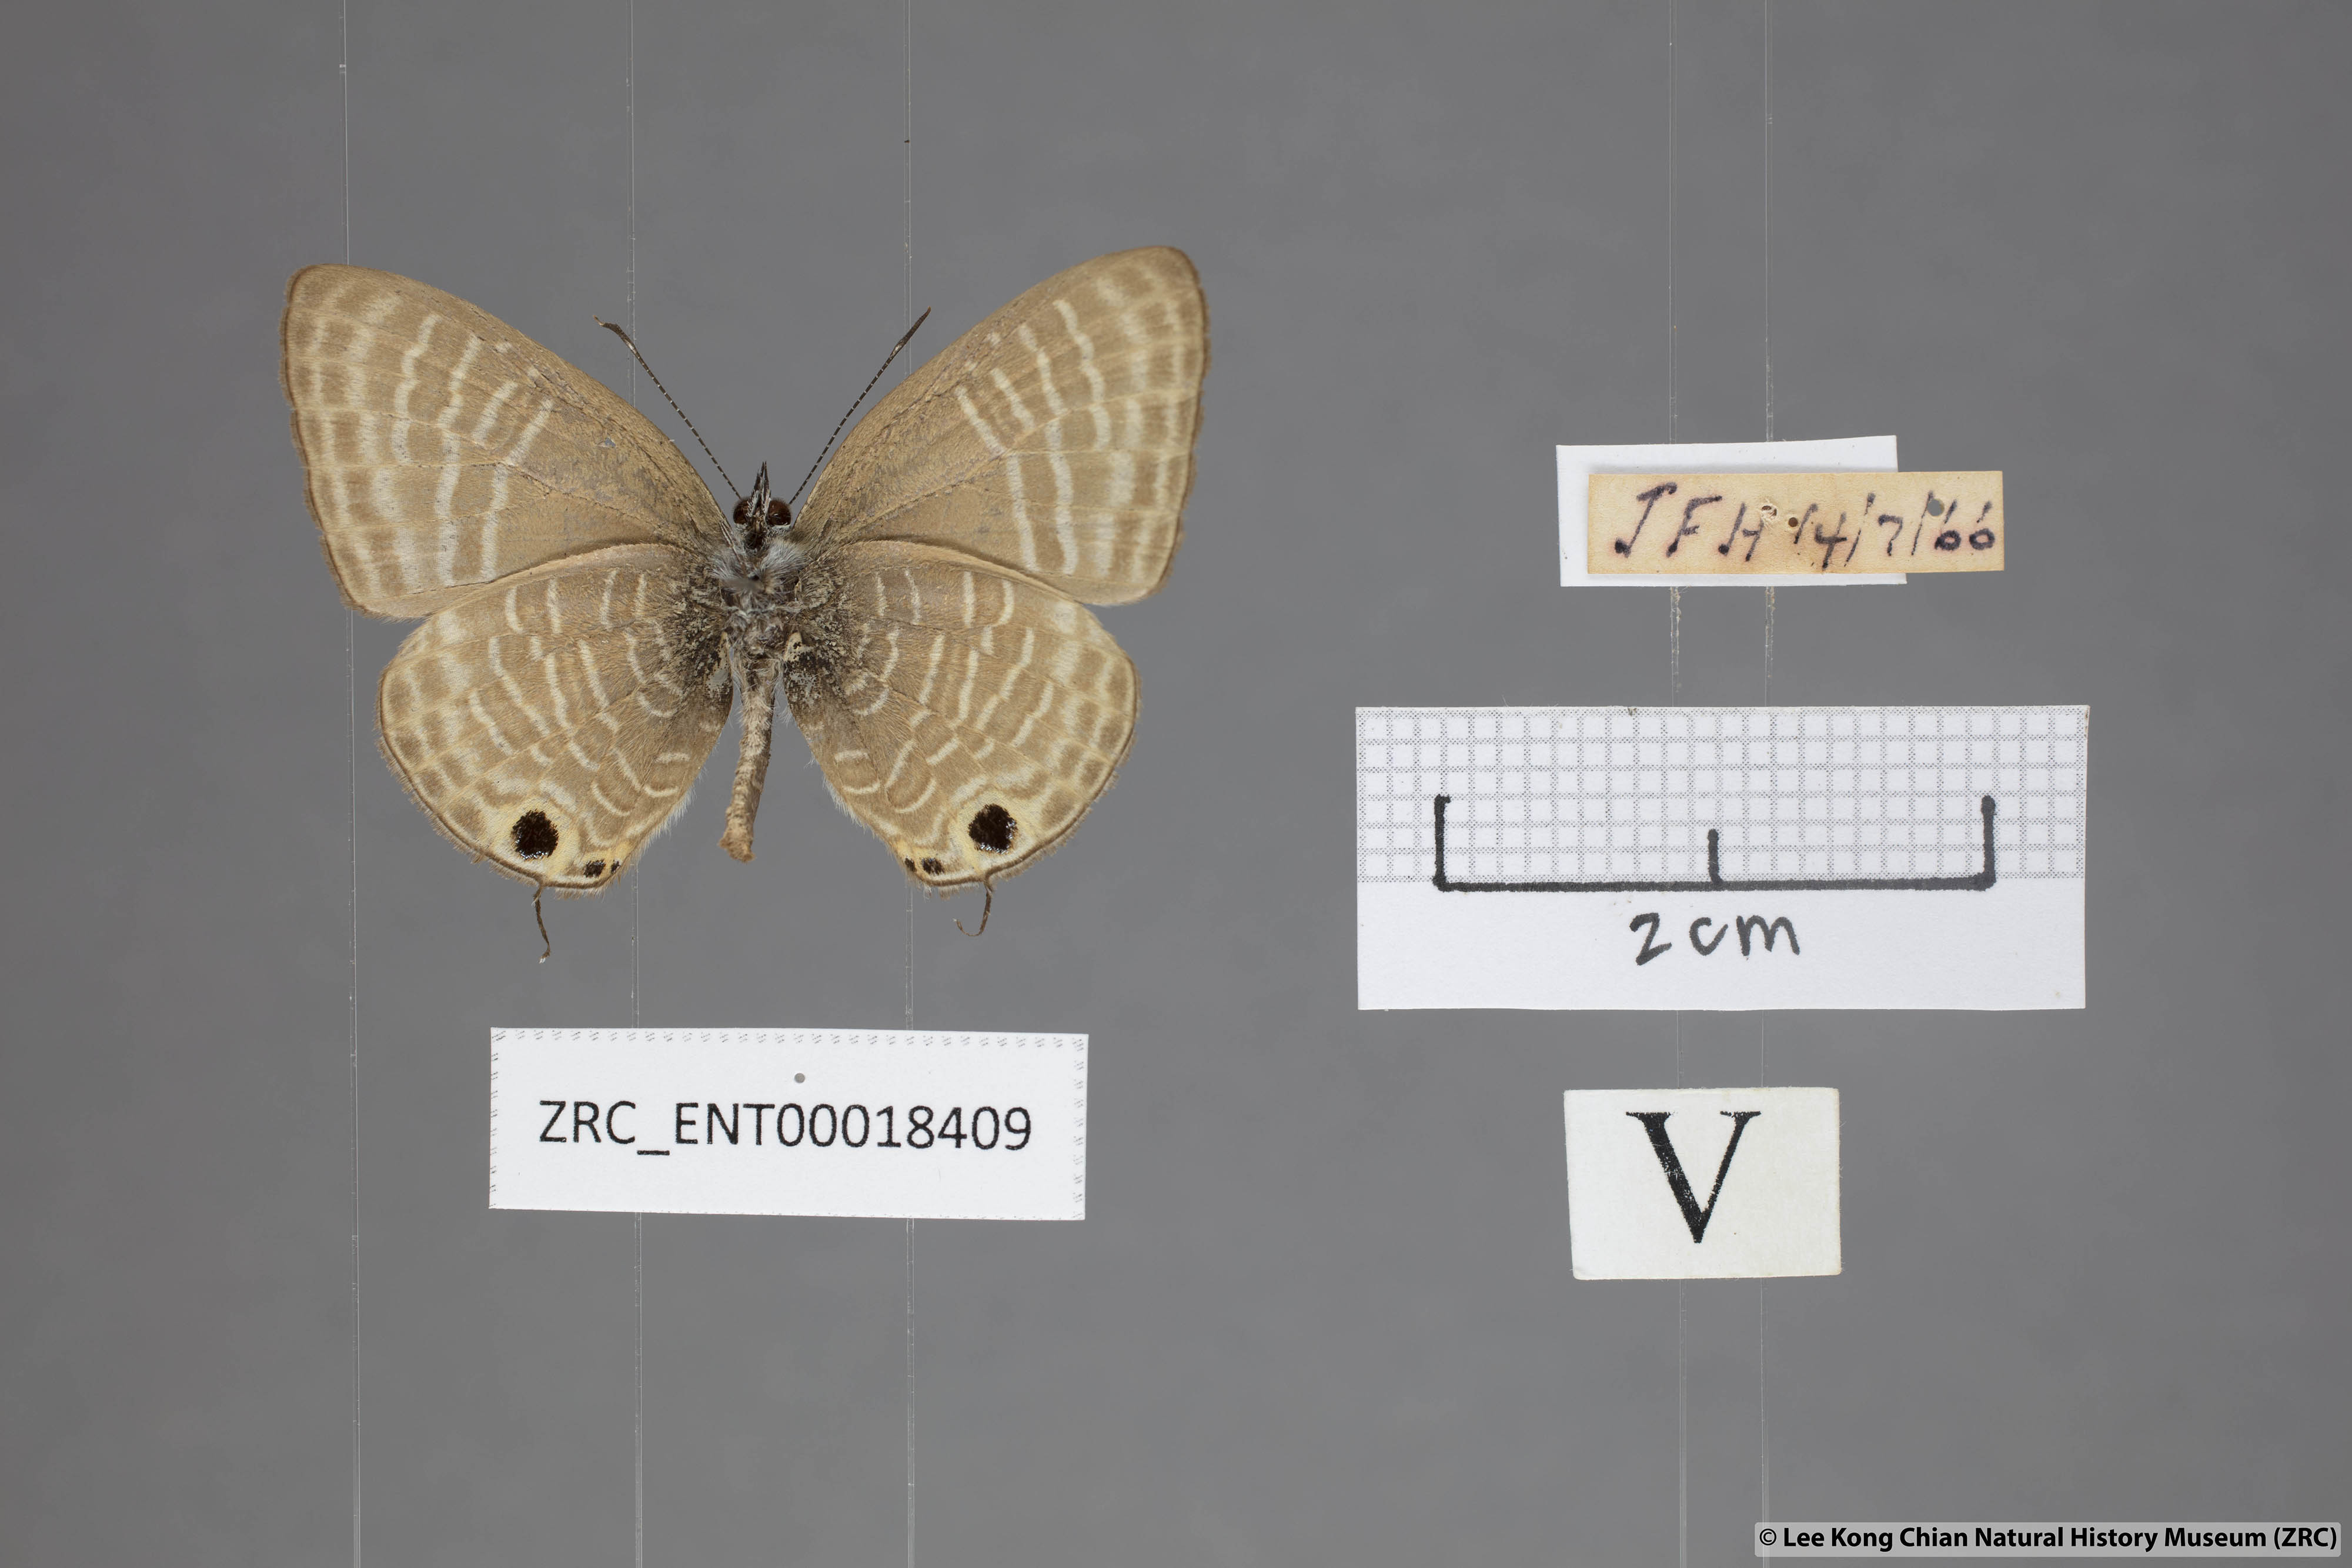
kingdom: Animalia
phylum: Arthropoda
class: Insecta
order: Lepidoptera
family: Lycaenidae
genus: Nacaduba
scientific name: Nacaduba pactolus
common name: Large fourline blue
